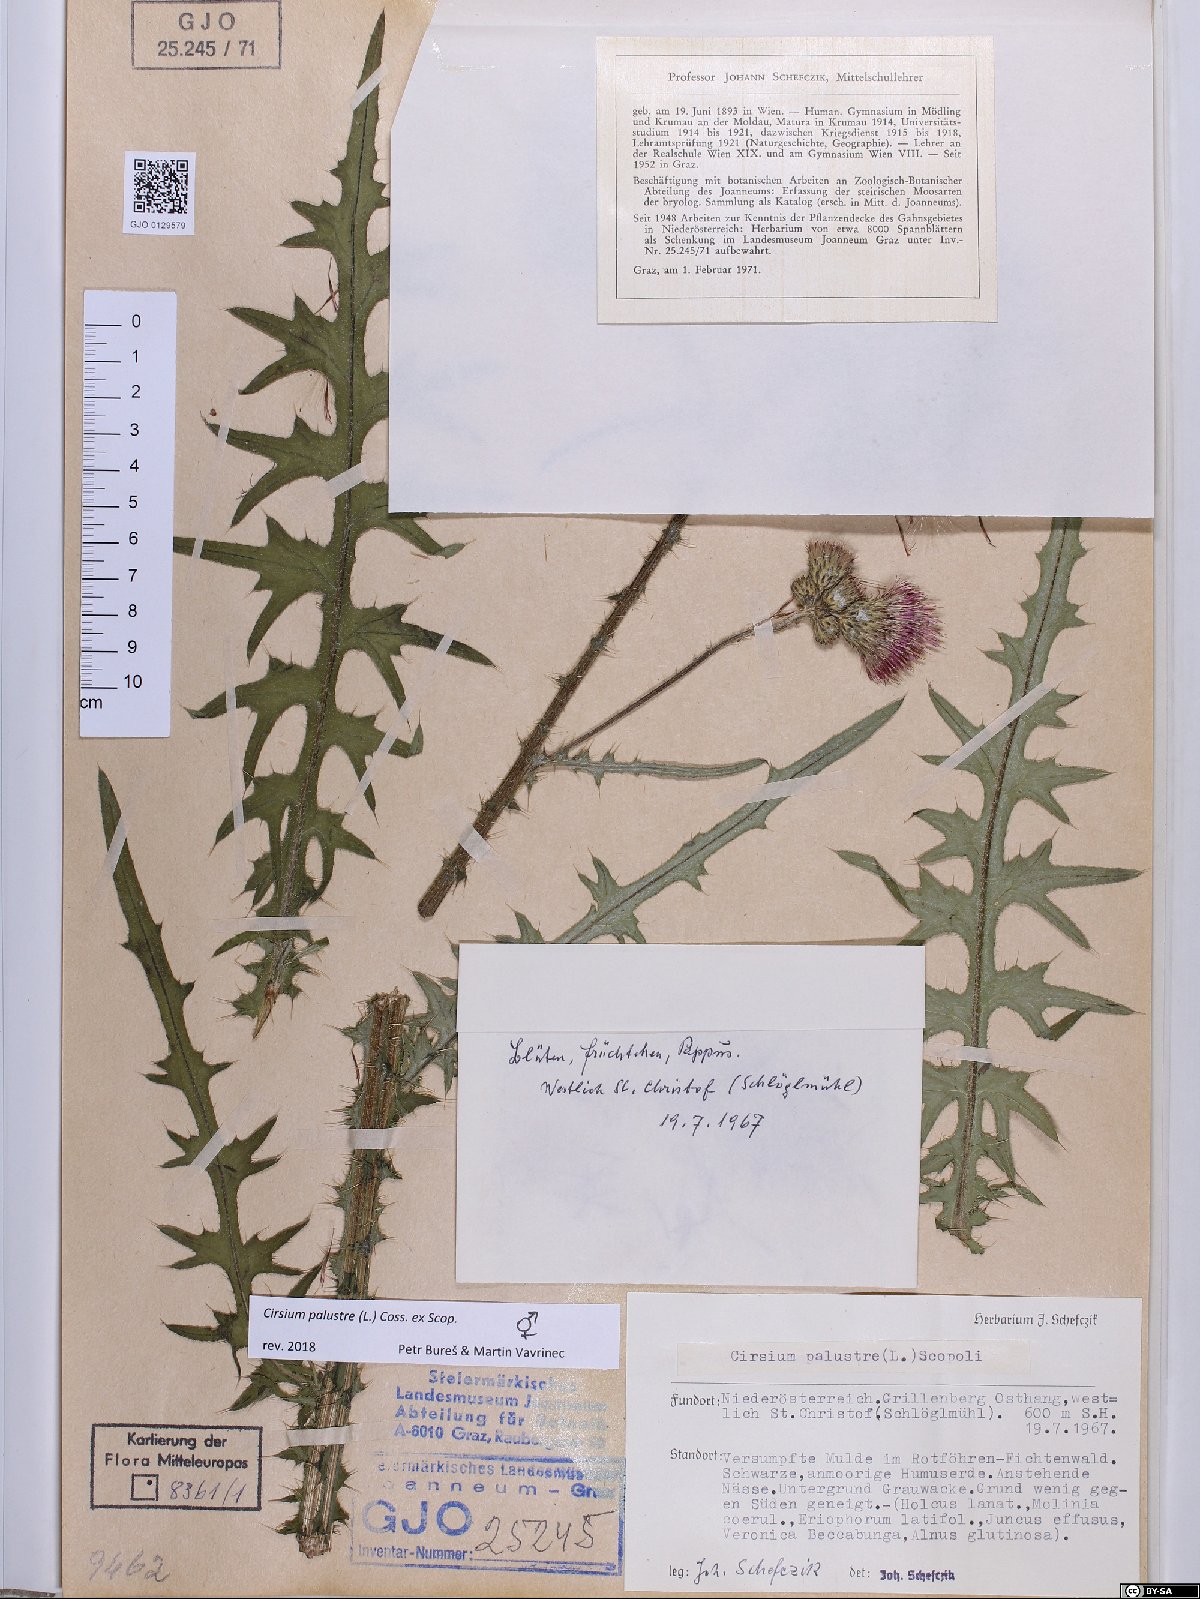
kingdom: Plantae
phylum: Tracheophyta
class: Magnoliopsida
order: Asterales
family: Asteraceae
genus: Cirsium
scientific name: Cirsium palustre
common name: Marsh thistle
